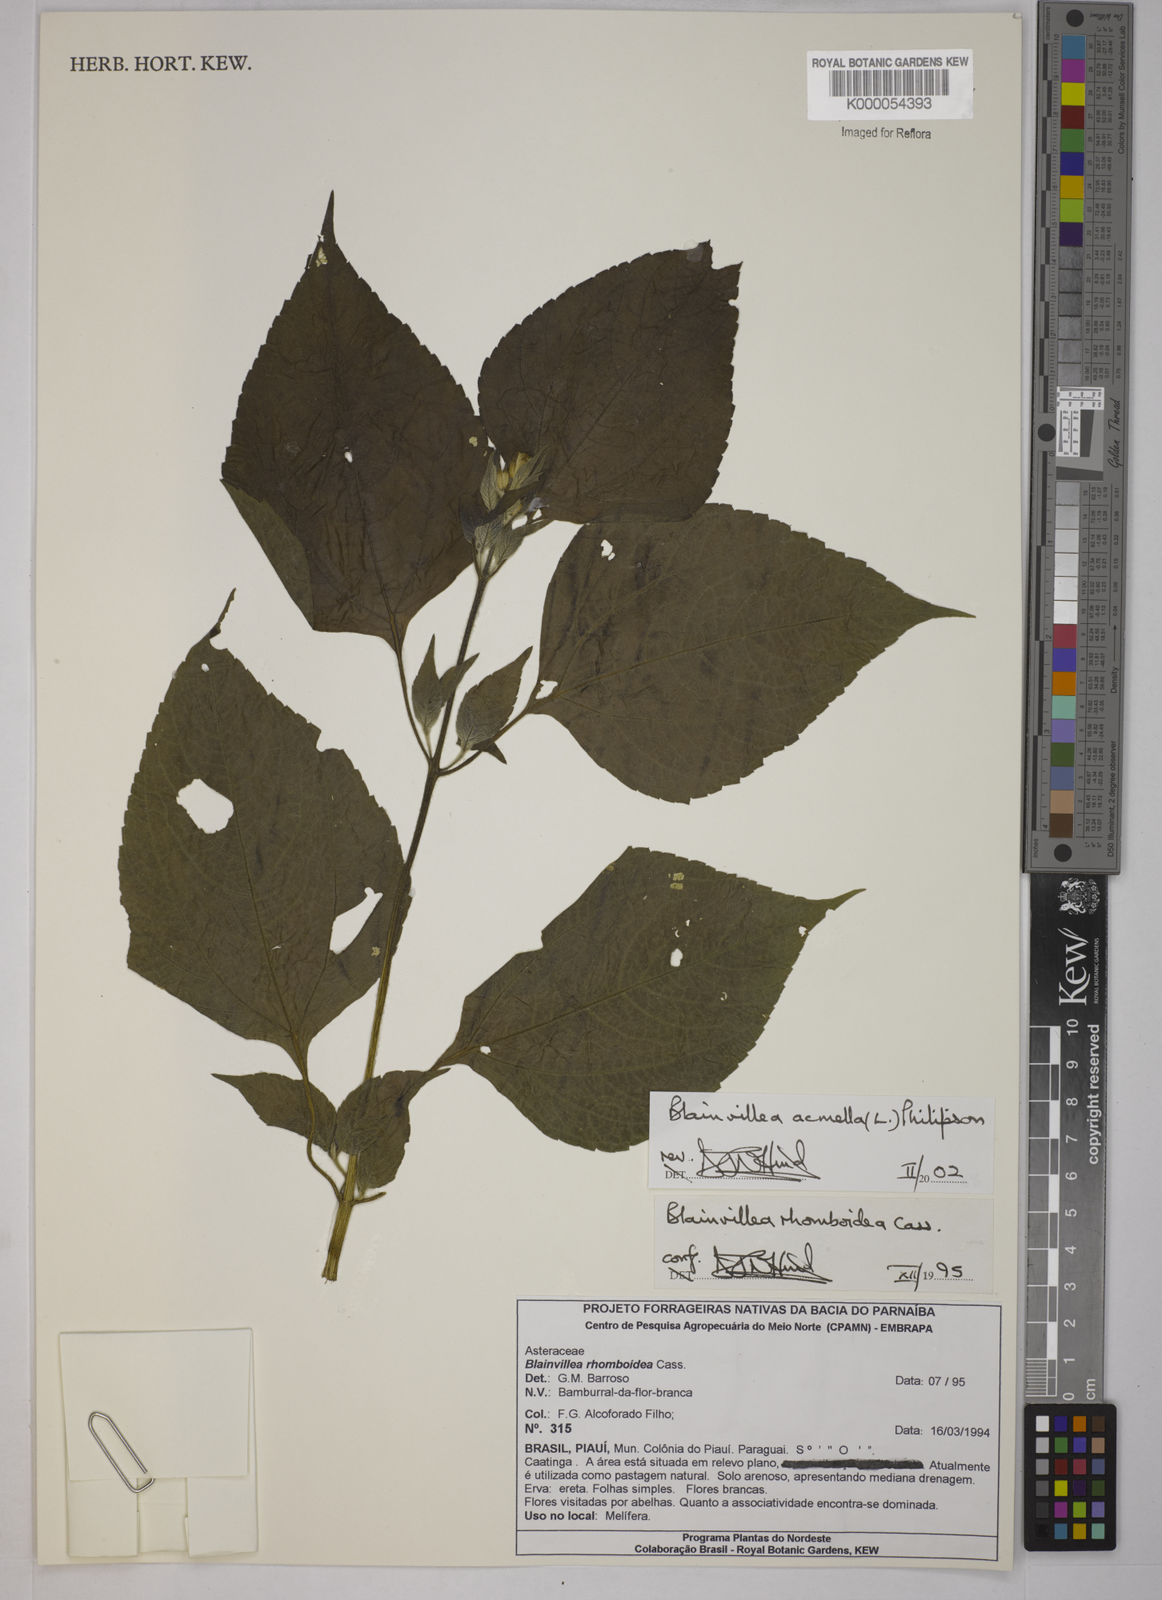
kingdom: Plantae
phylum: Tracheophyta
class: Magnoliopsida
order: Asterales
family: Asteraceae
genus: Blainvillea
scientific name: Blainvillea acmella
